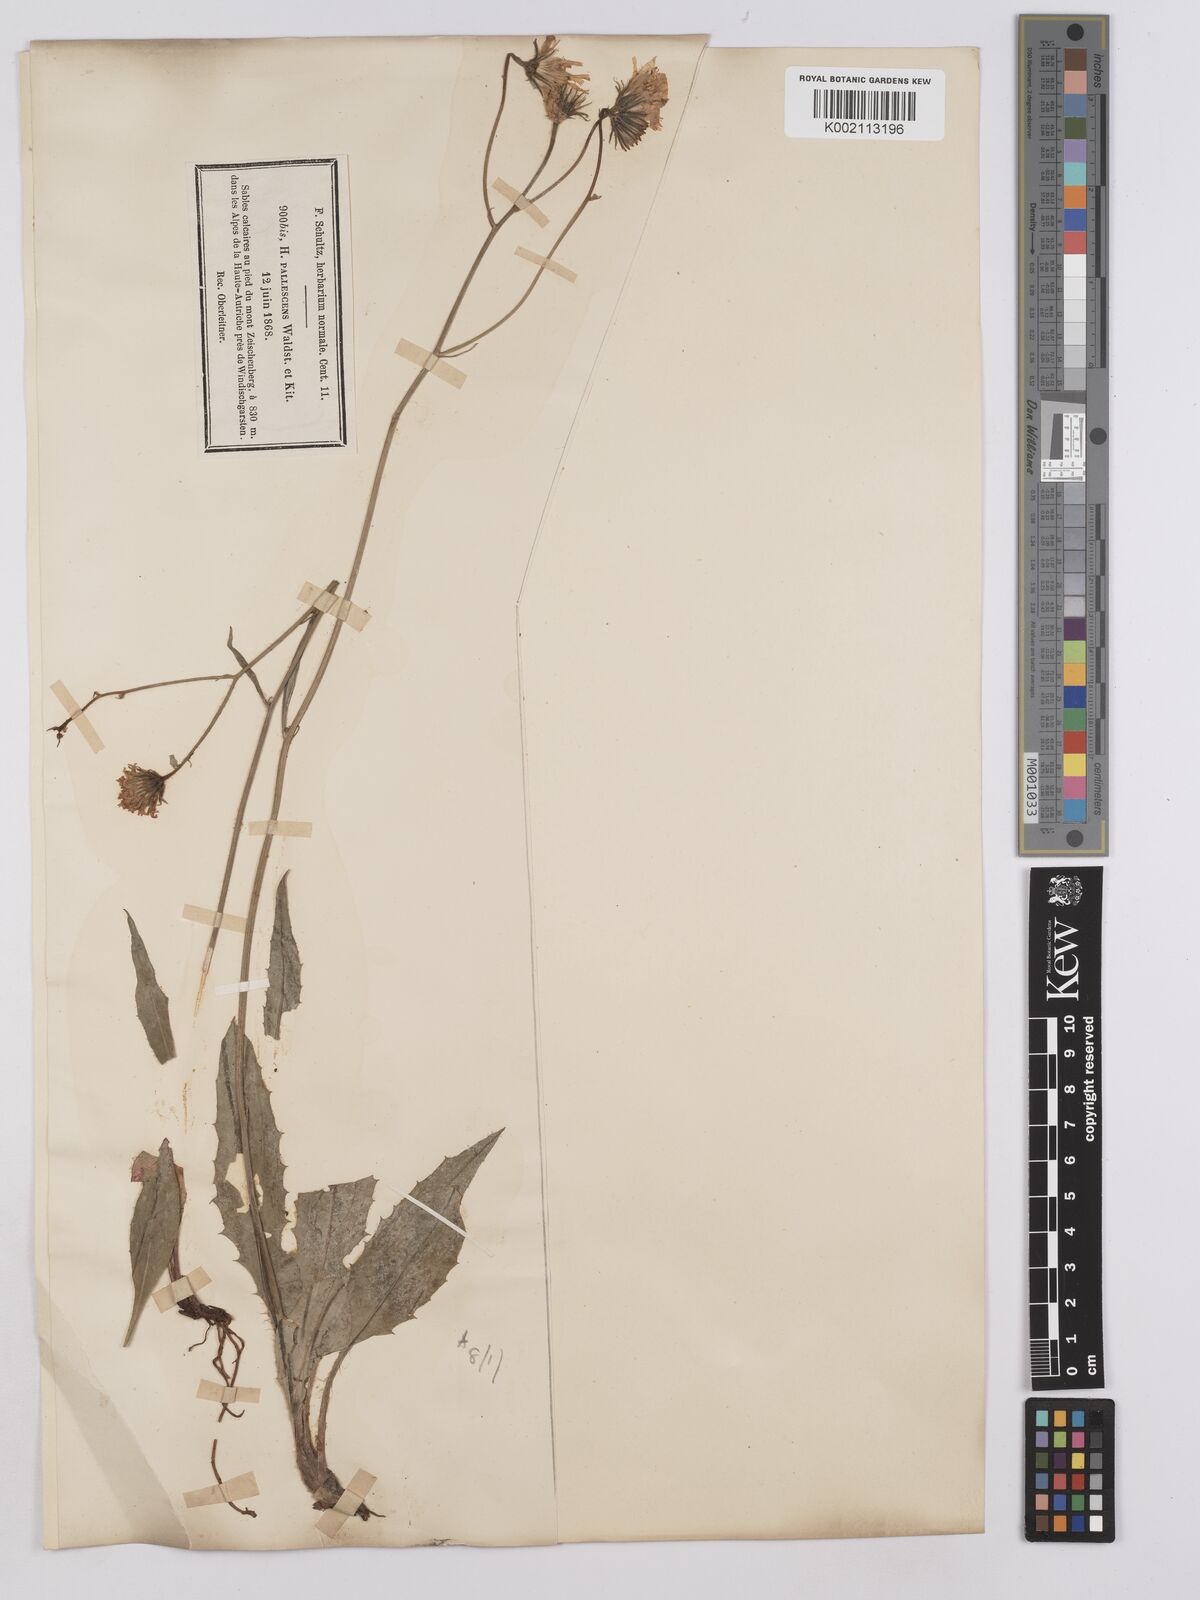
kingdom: Plantae
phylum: Tracheophyta
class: Magnoliopsida
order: Asterales
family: Asteraceae
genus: Crepis
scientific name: Crepis blattarioides
